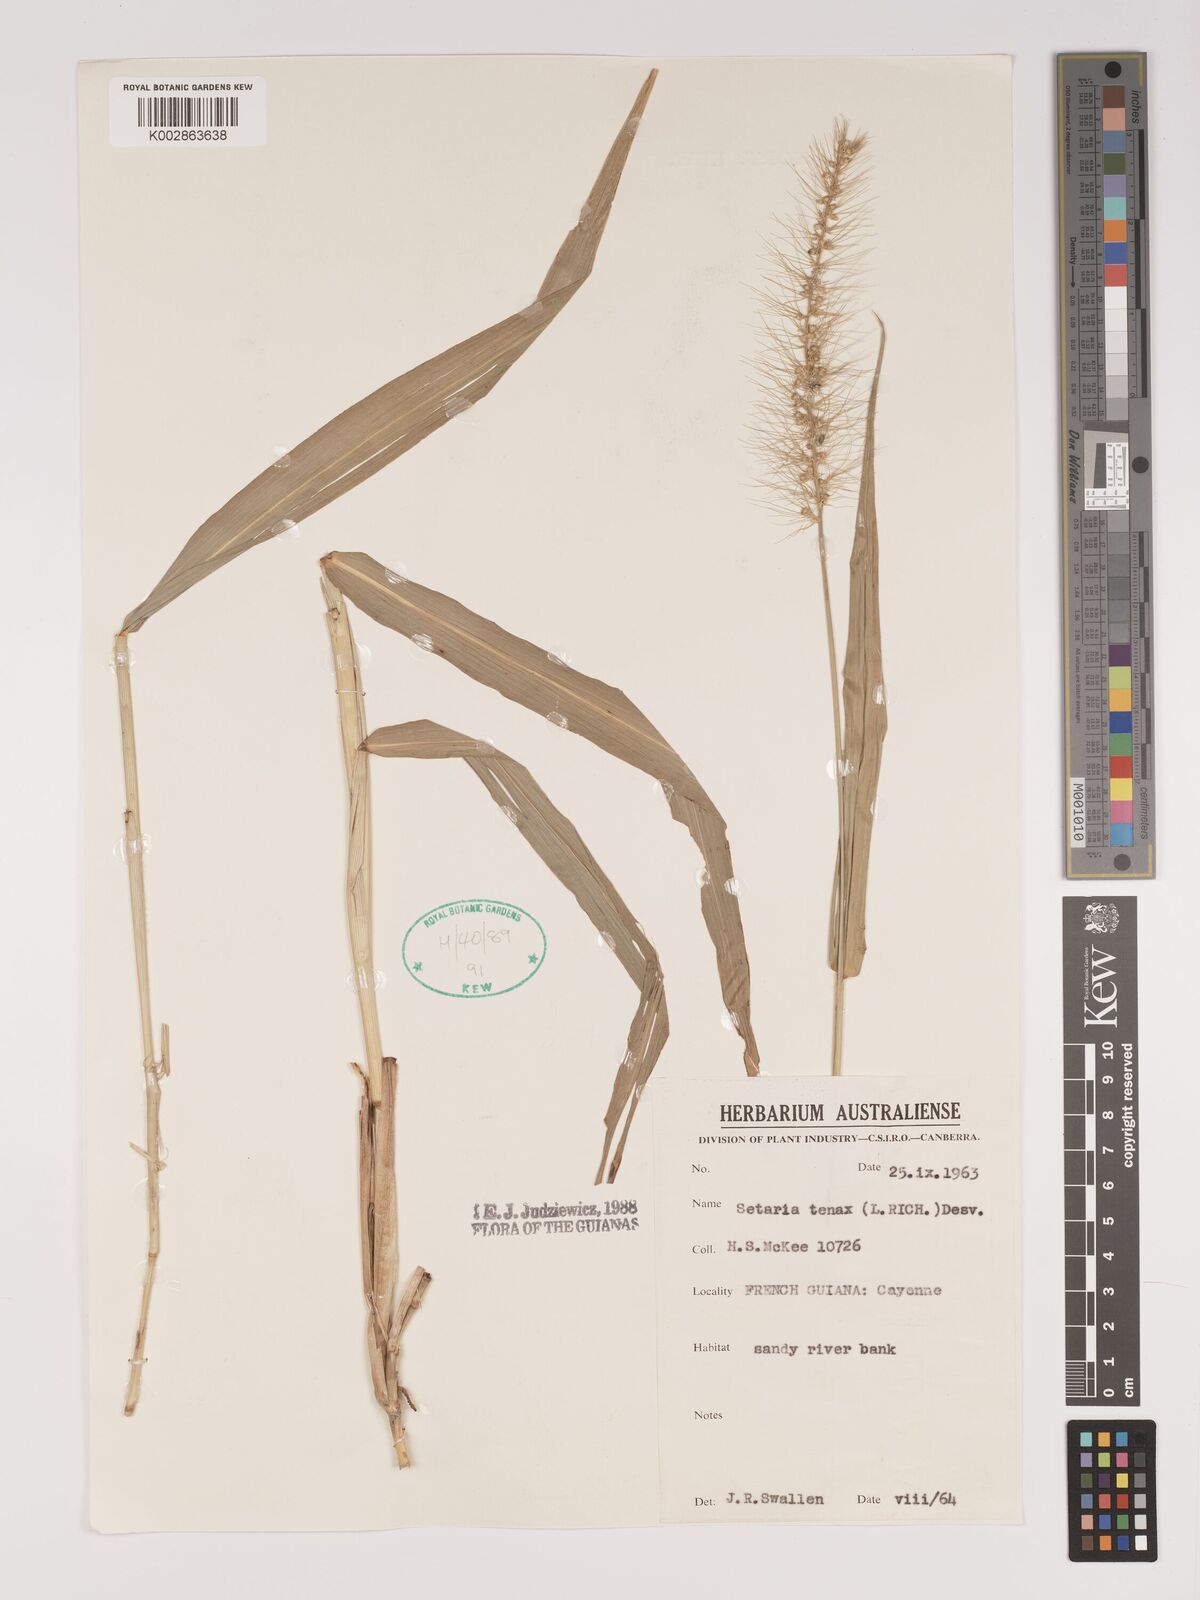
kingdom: Plantae
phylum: Tracheophyta
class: Liliopsida
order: Poales
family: Poaceae
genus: Setaria
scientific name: Setaria tenax
